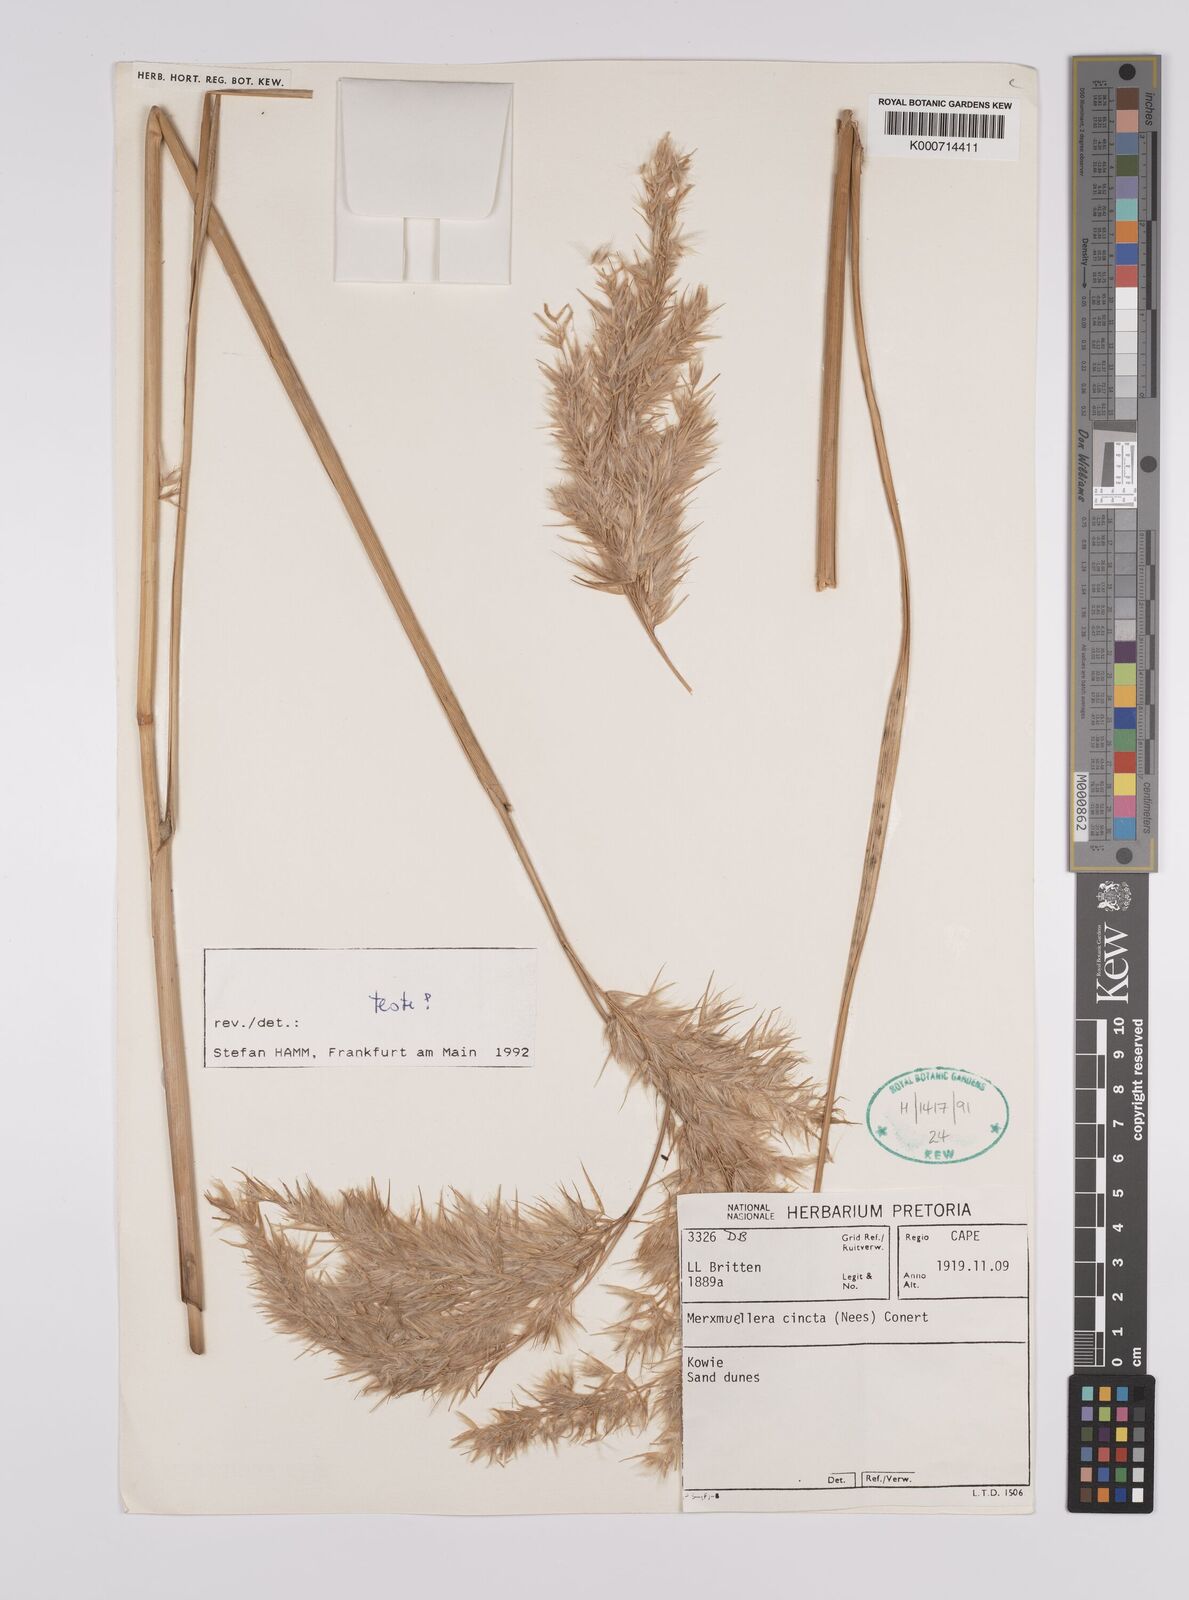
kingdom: Plantae
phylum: Tracheophyta
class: Liliopsida
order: Poales
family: Poaceae
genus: Rytidosperma
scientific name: Rytidosperma
